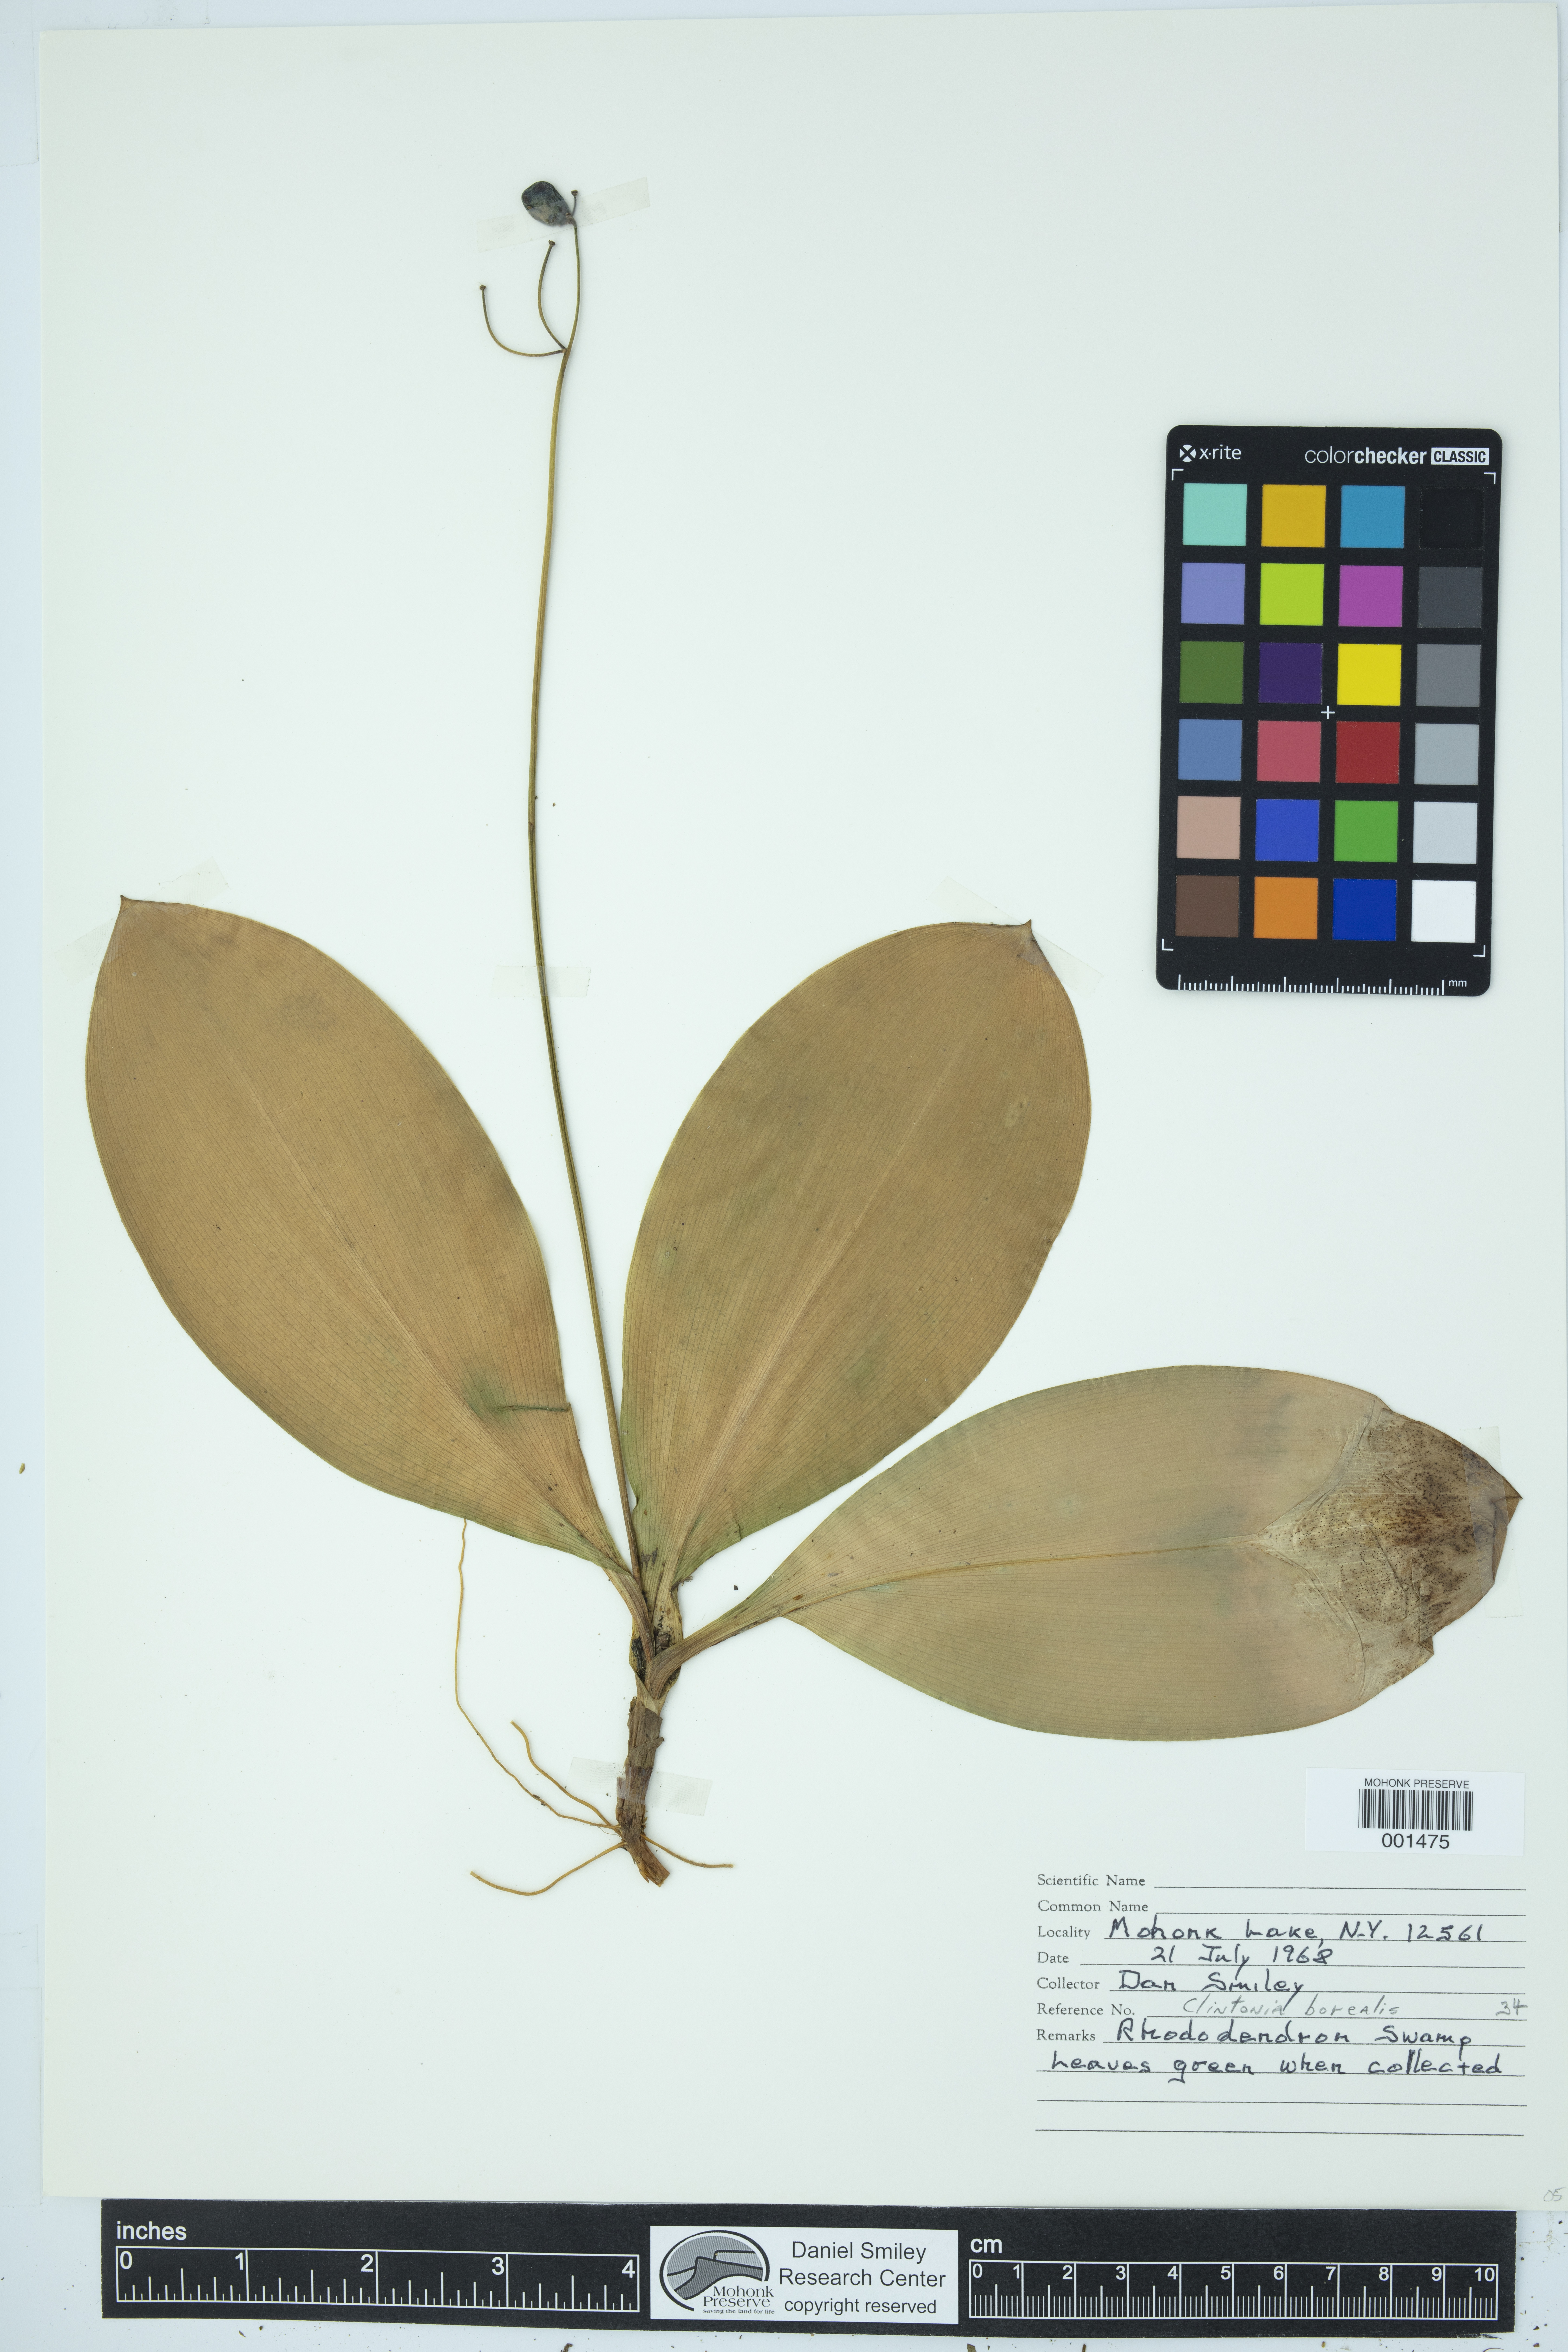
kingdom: Plantae
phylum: Tracheophyta
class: Liliopsida
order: Liliales
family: Liliaceae
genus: Clintonia
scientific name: Clintonia borealis
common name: Yellow clintonia
